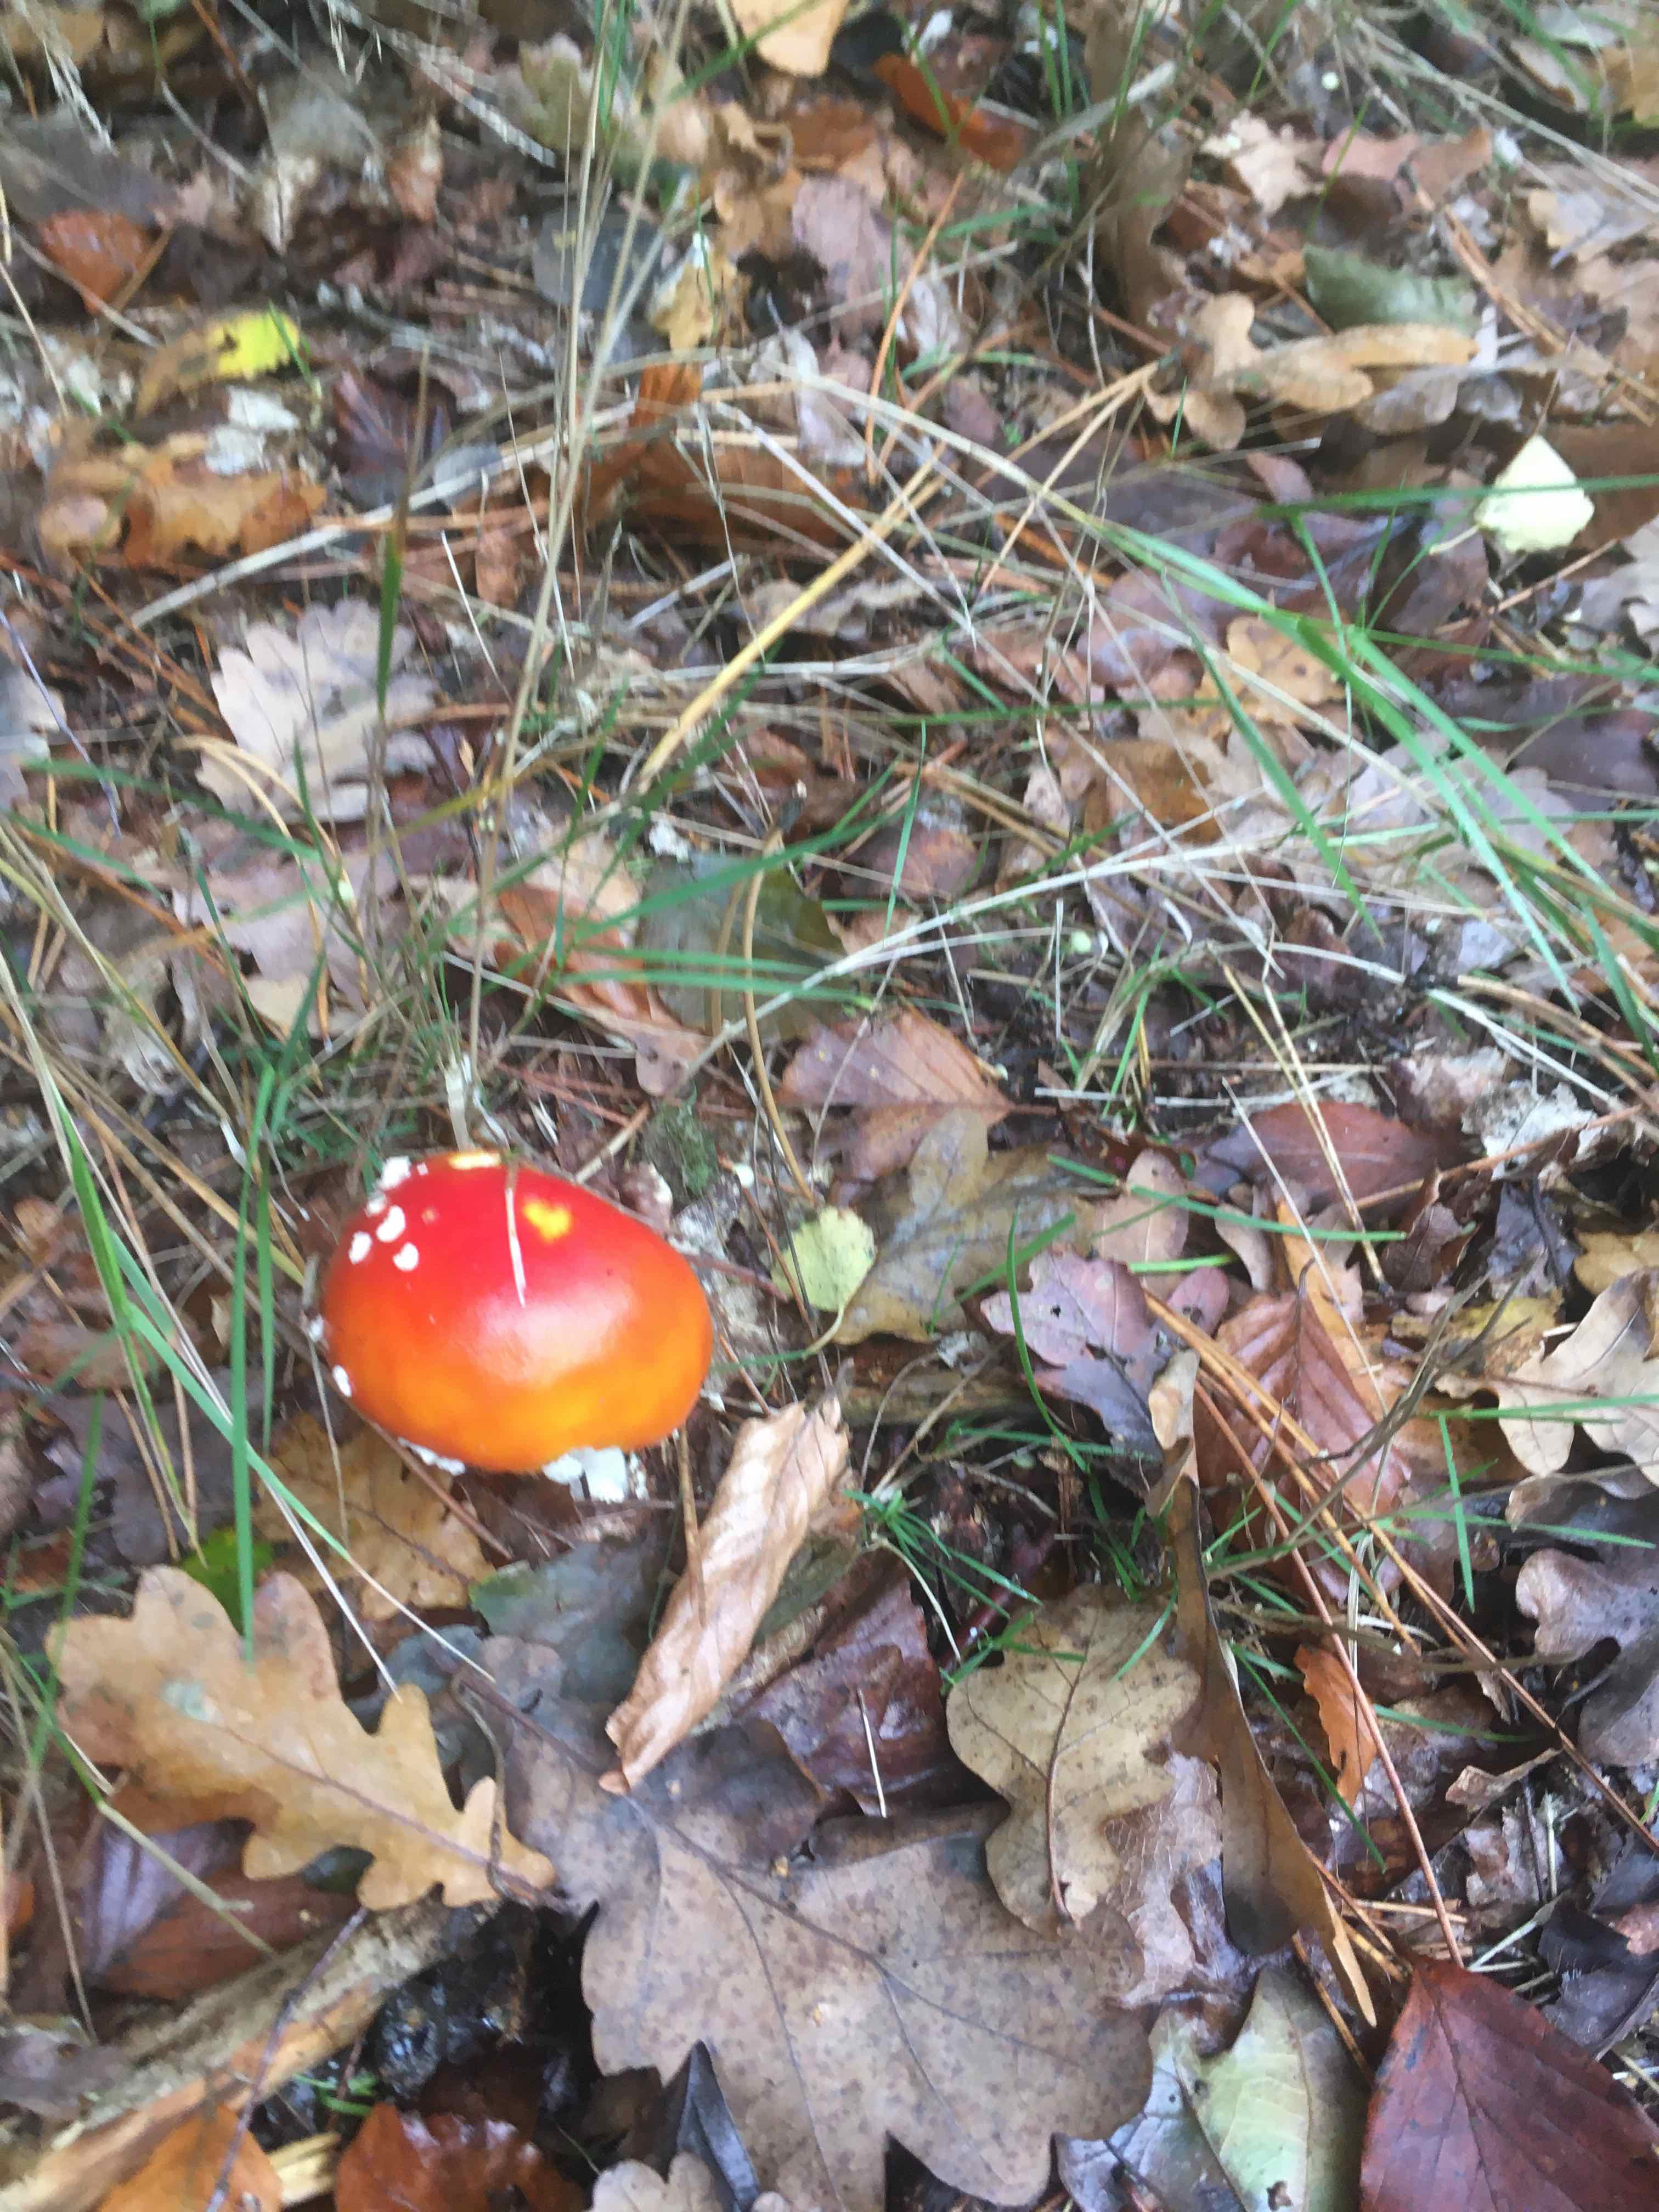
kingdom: Fungi
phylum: Basidiomycota
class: Agaricomycetes
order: Agaricales
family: Amanitaceae
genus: Amanita
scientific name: Amanita muscaria
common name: rød fluesvamp
